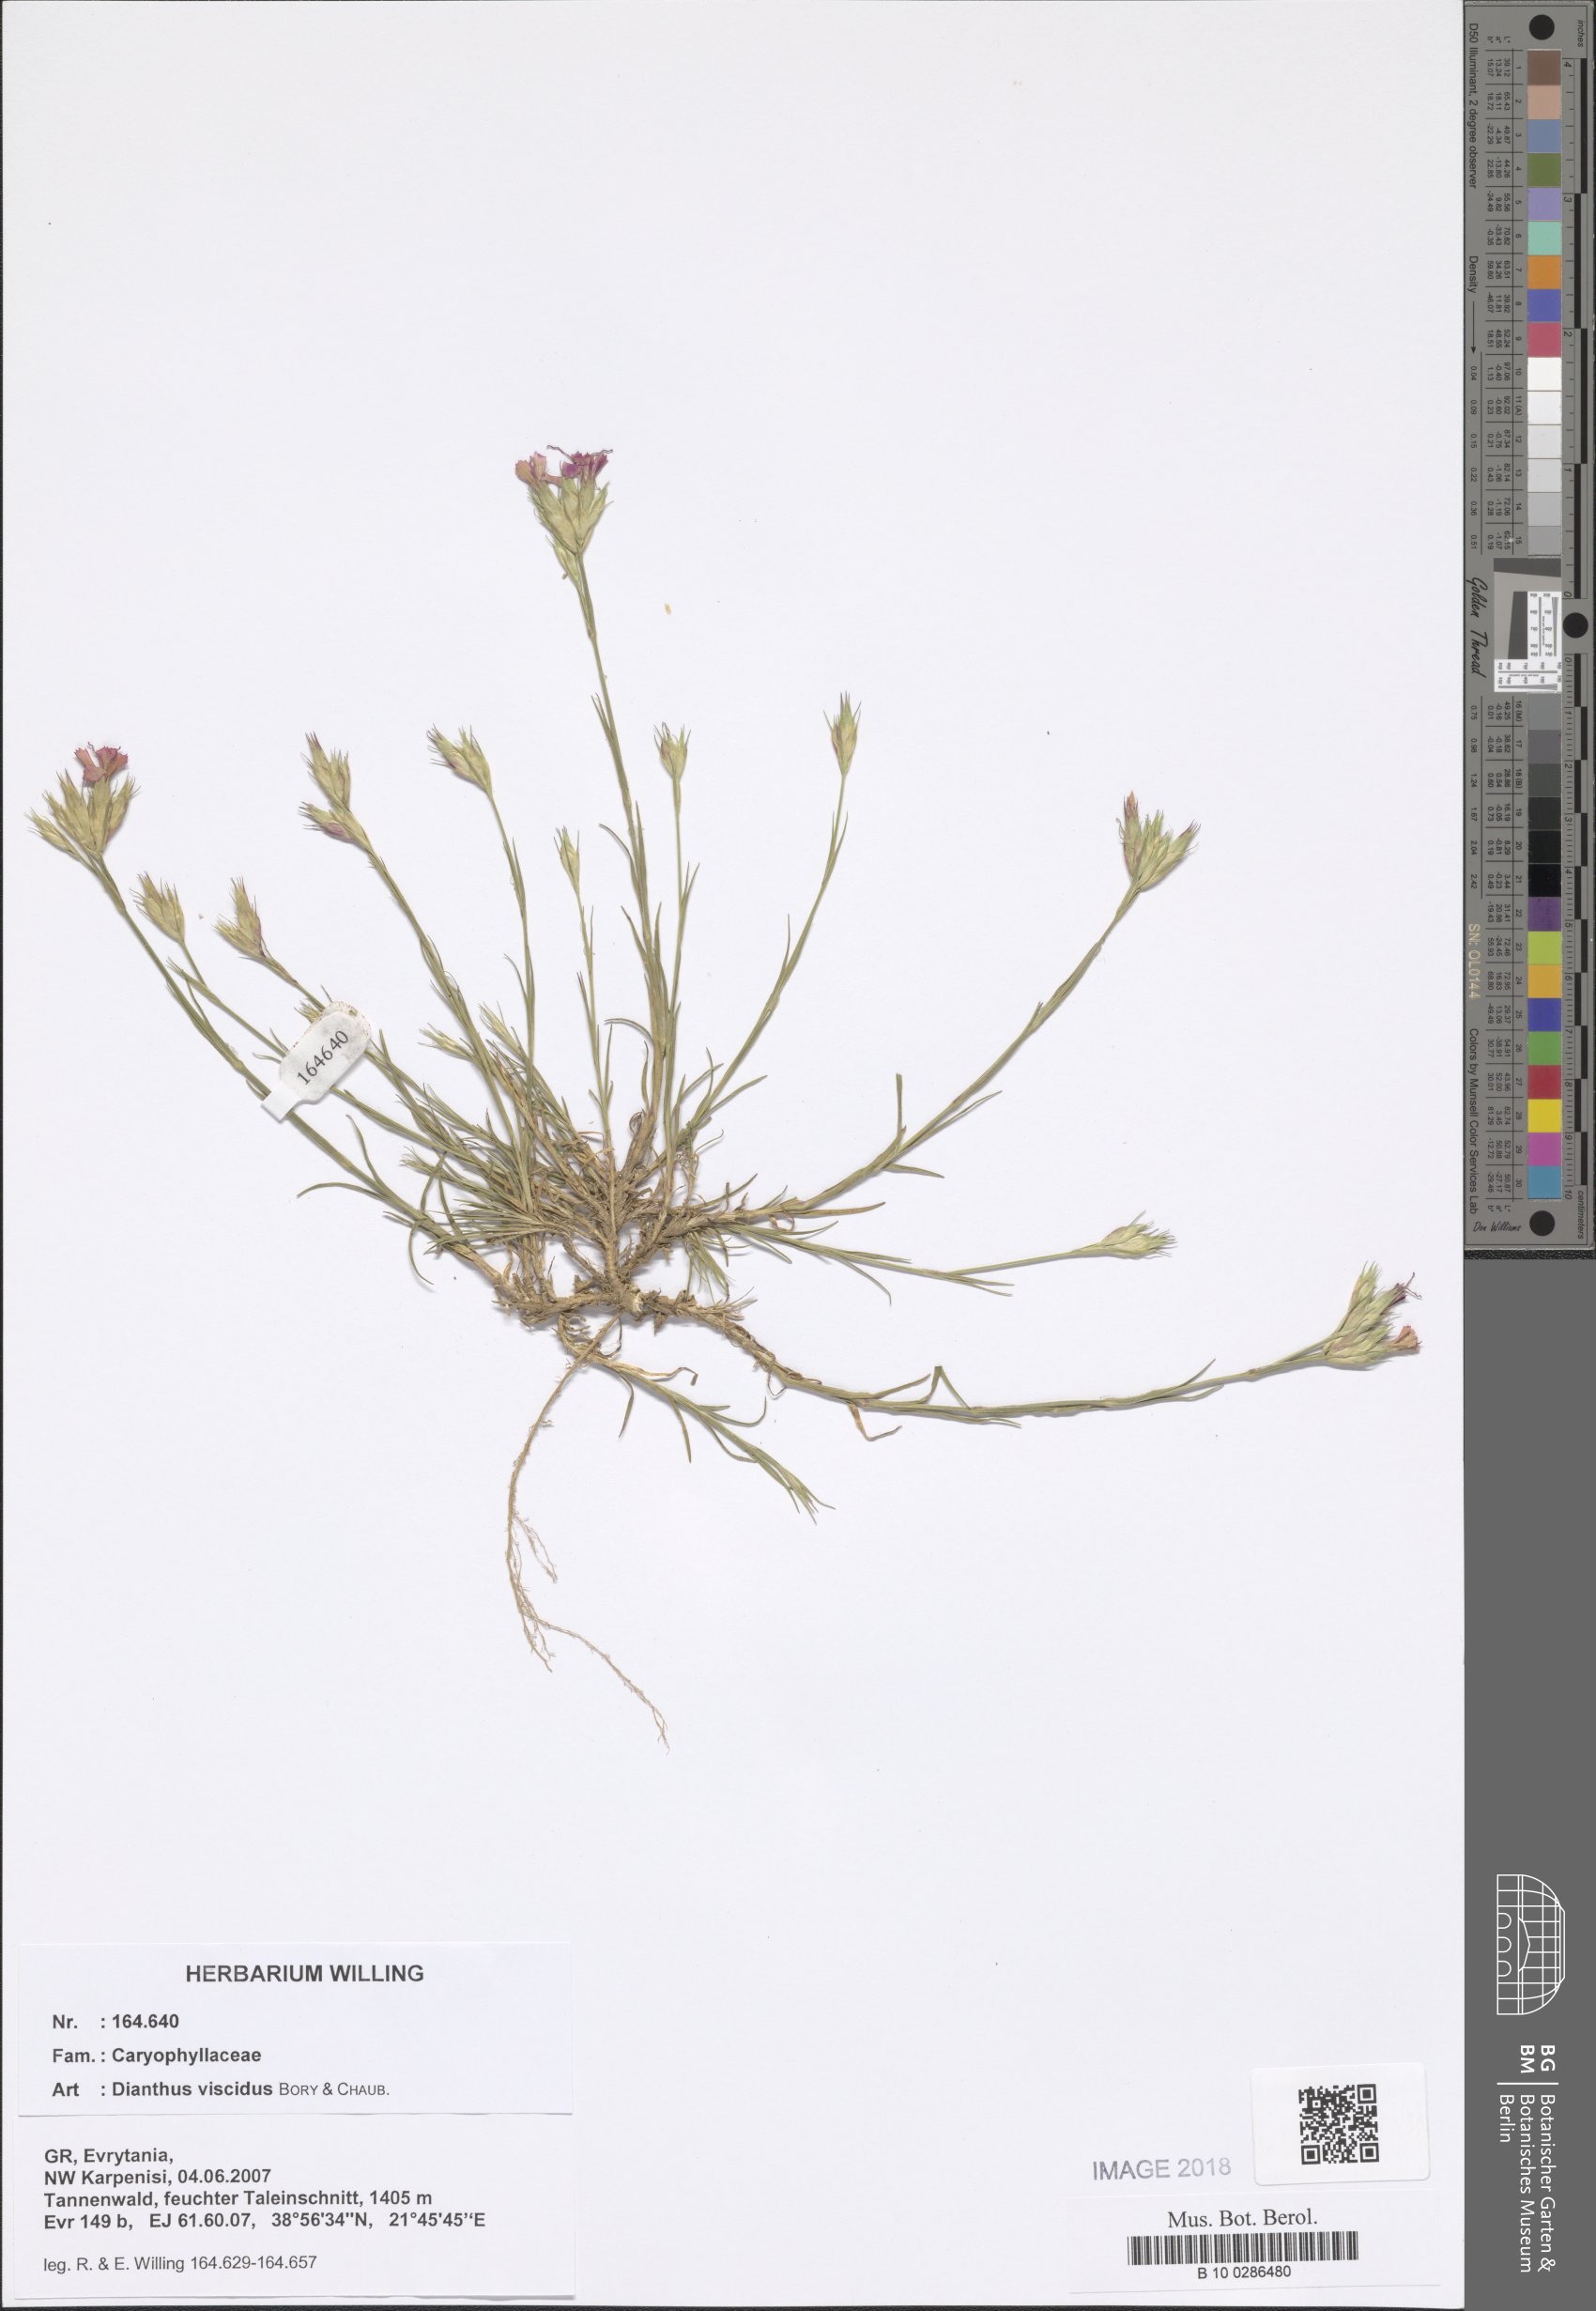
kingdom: Plantae
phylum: Tracheophyta
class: Magnoliopsida
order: Caryophyllales
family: Caryophyllaceae
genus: Dianthus
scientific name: Dianthus viscidus
